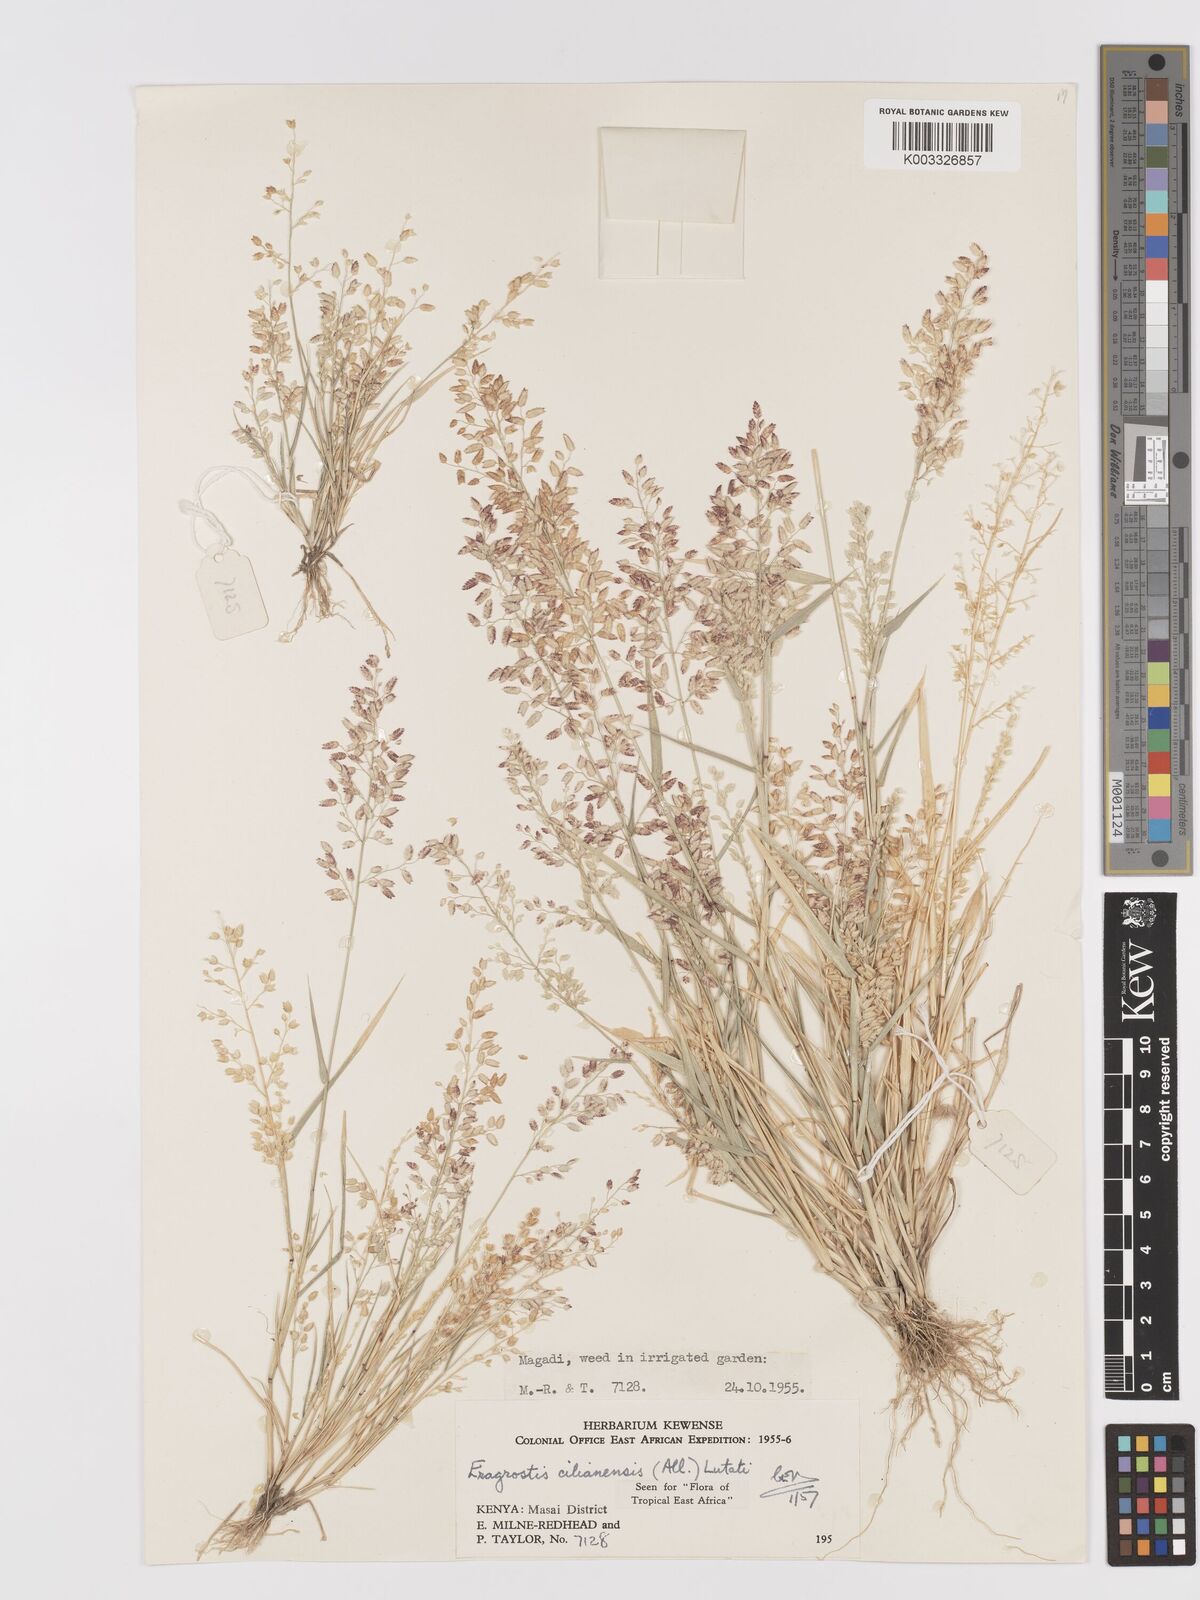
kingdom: Plantae
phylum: Tracheophyta
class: Liliopsida
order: Poales
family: Poaceae
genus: Eragrostis
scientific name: Eragrostis cilianensis
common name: Stinkgrass
